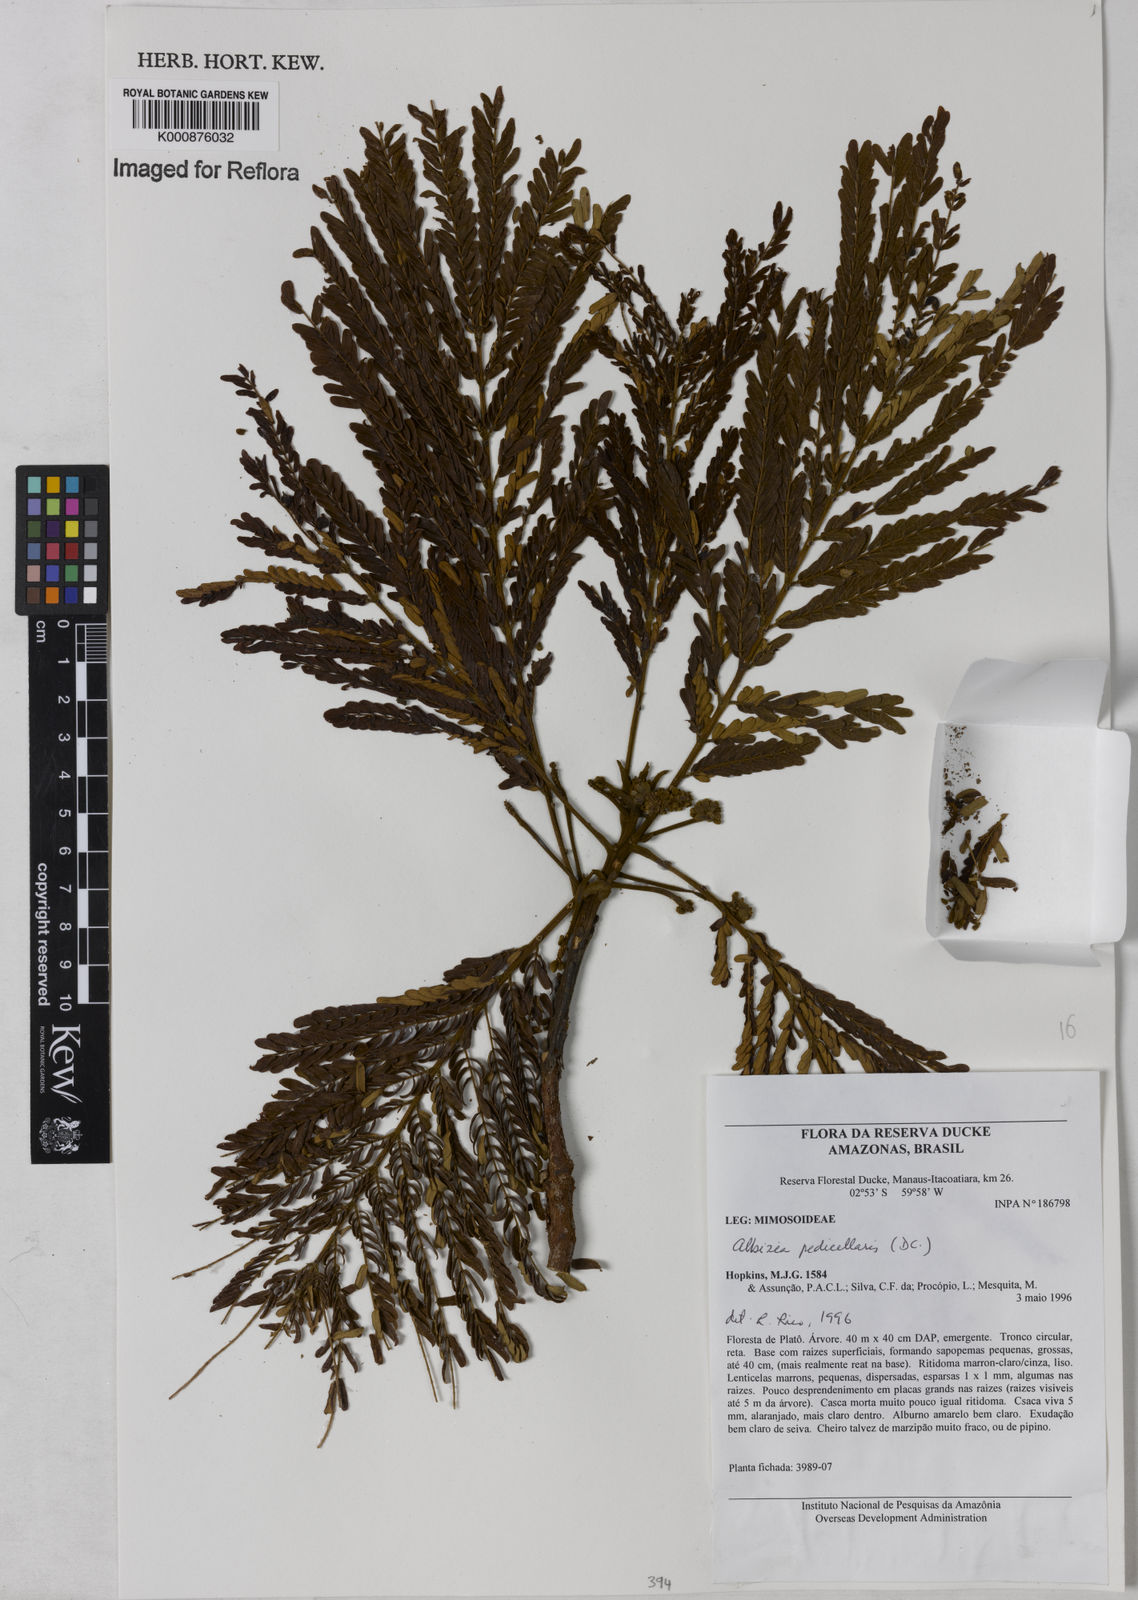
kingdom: Plantae
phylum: Tracheophyta
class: Magnoliopsida
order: Fabales
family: Fabaceae
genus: Balizia
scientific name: Balizia pedicellaris
